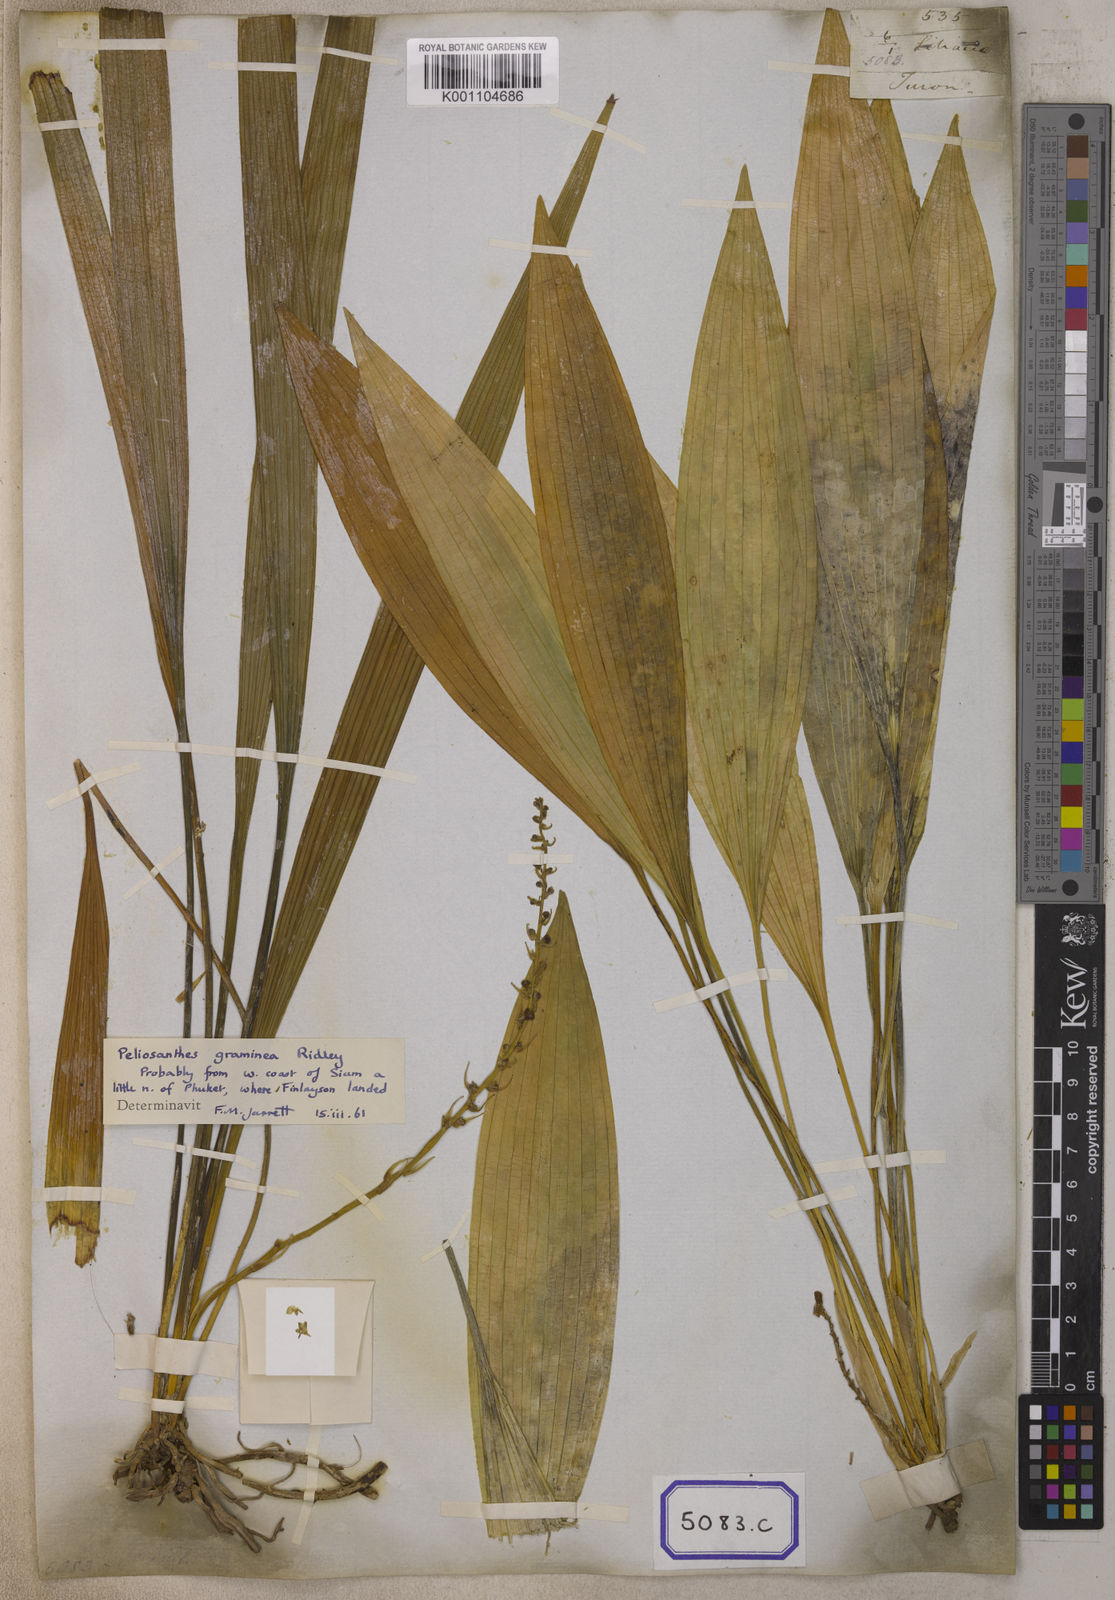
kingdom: Plantae
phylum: Tracheophyta
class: Liliopsida
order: Asparagales
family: Asparagaceae
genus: Peliosanthes
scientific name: Peliosanthes
